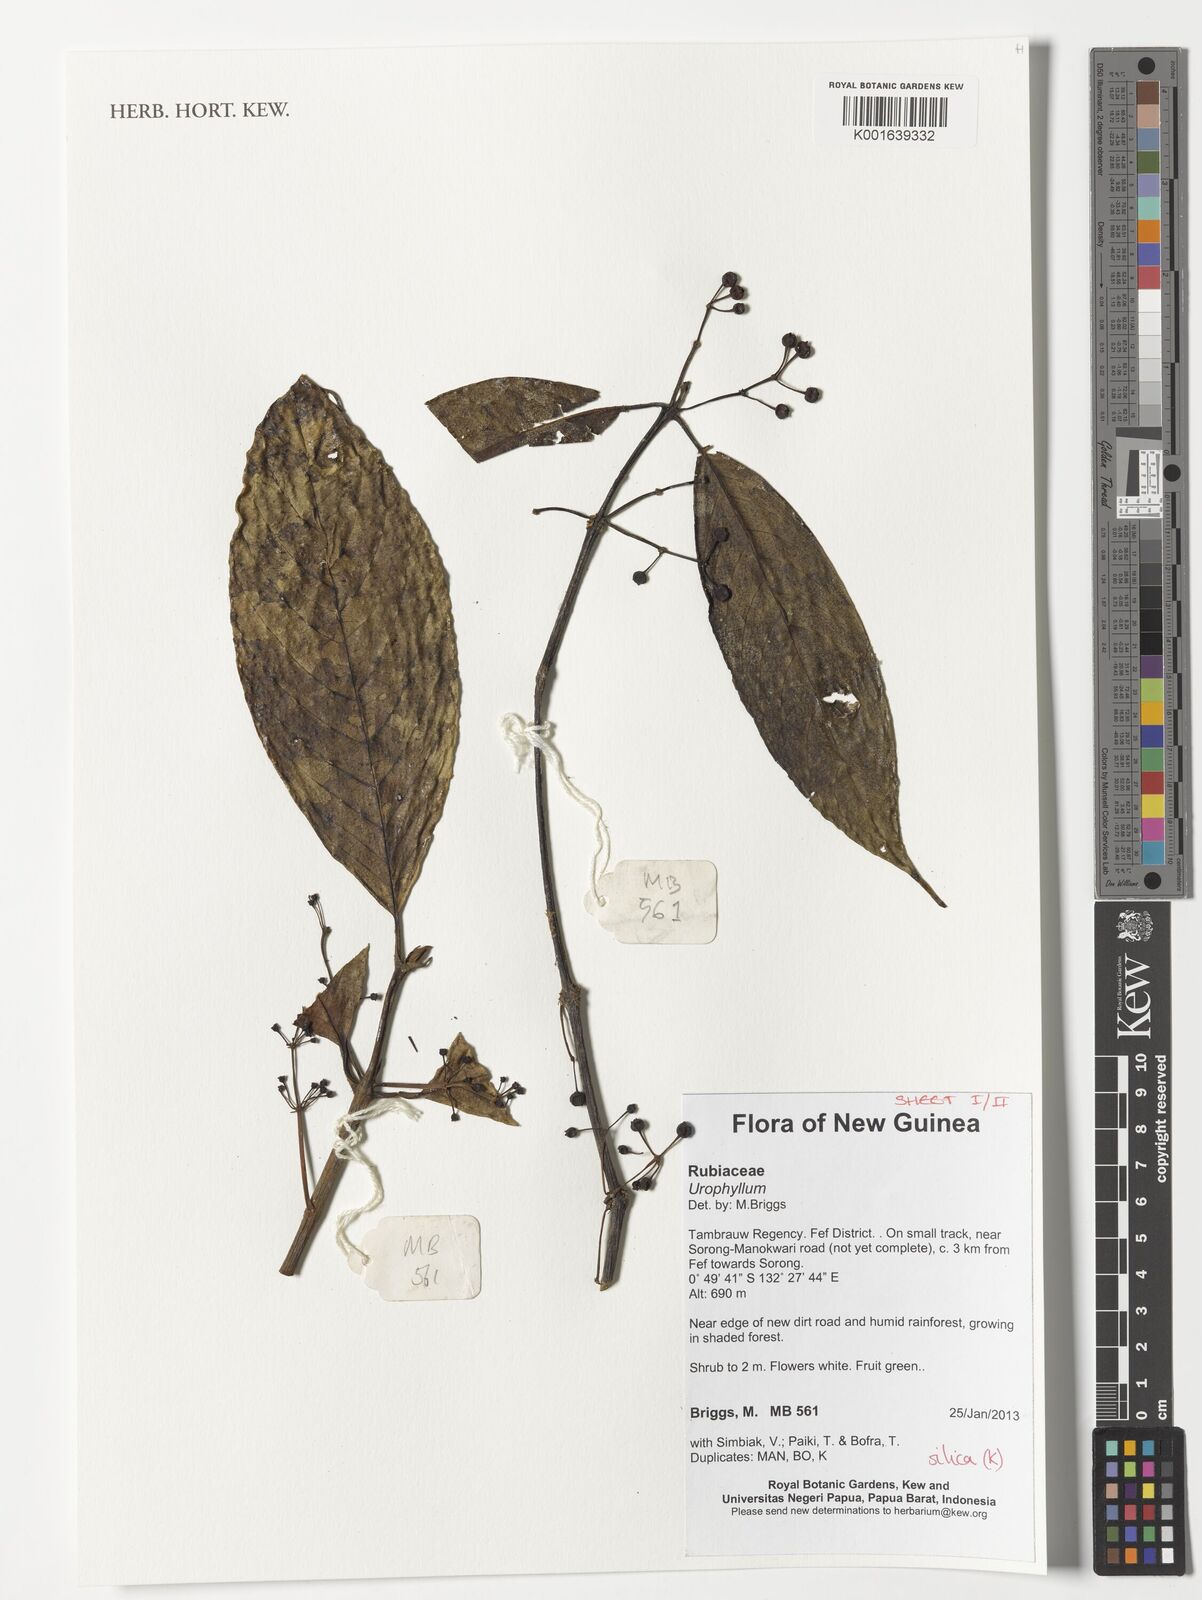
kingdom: Plantae
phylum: Tracheophyta
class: Magnoliopsida
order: Gentianales
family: Rubiaceae
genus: Urophyllum
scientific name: Urophyllum
